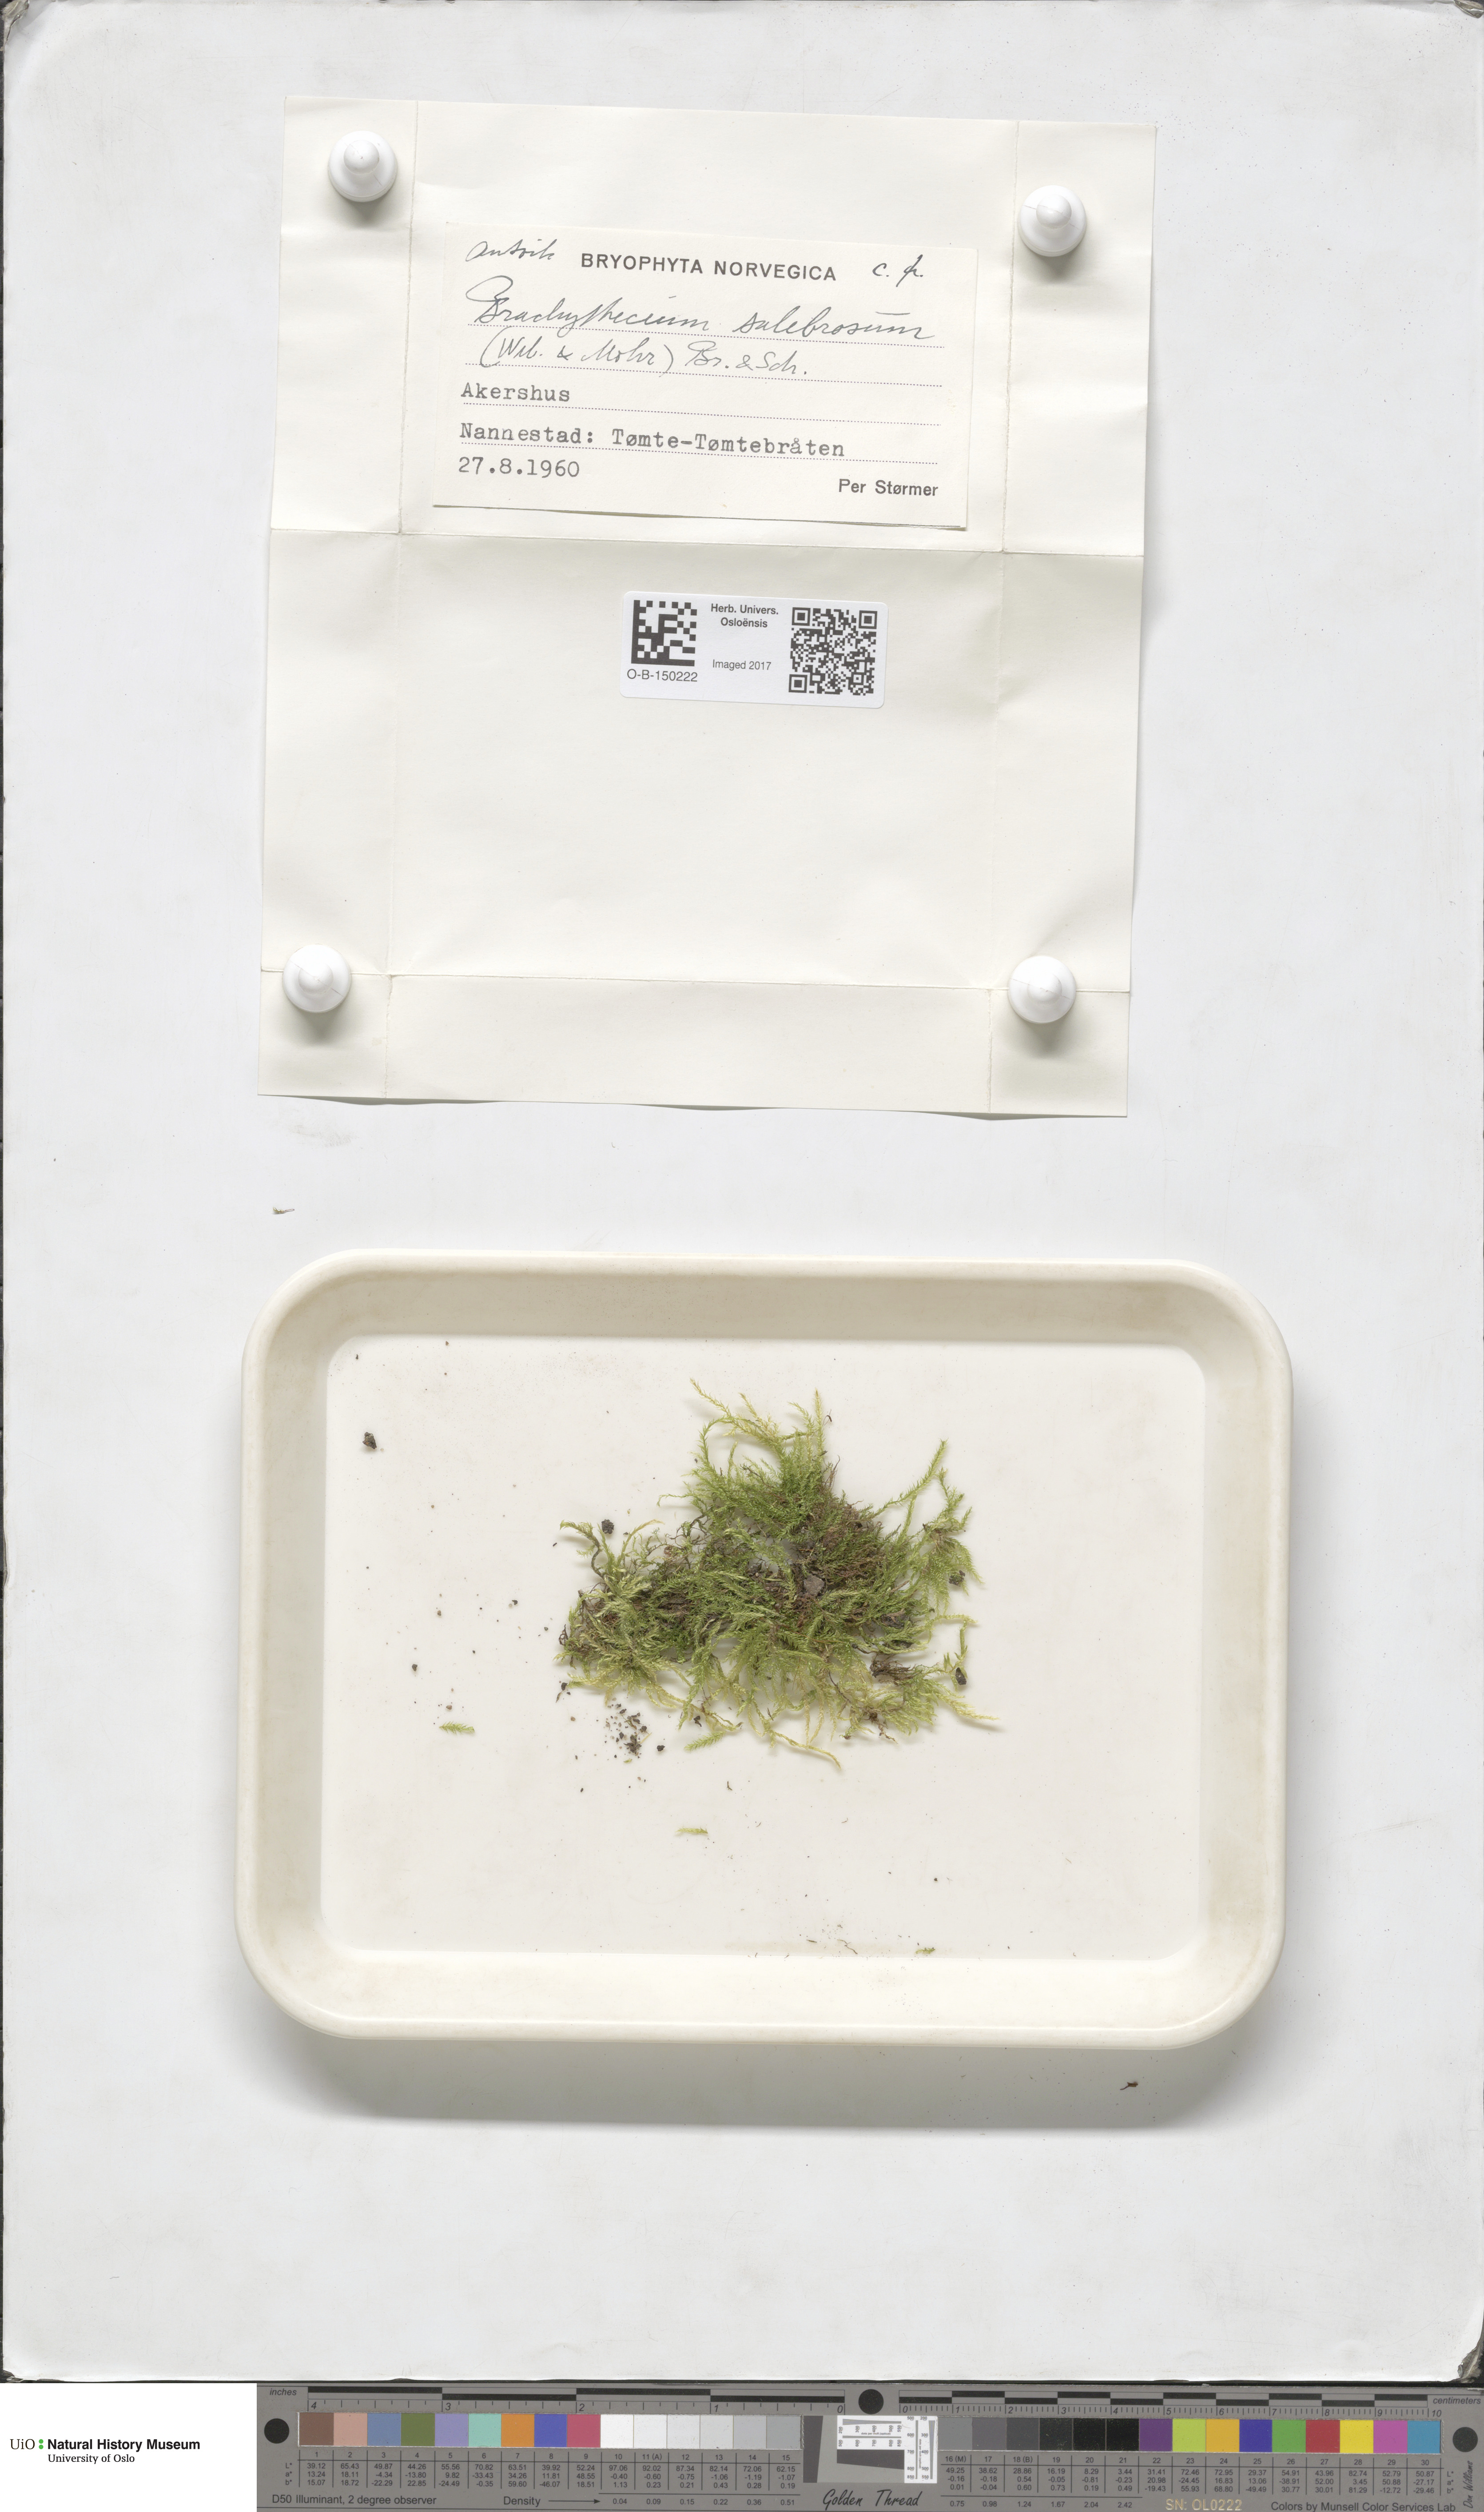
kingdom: Plantae
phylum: Bryophyta
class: Bryopsida
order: Hypnales
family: Brachytheciaceae
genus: Brachythecium
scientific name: Brachythecium salebrosum
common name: Smooth-stalk feather-moss
